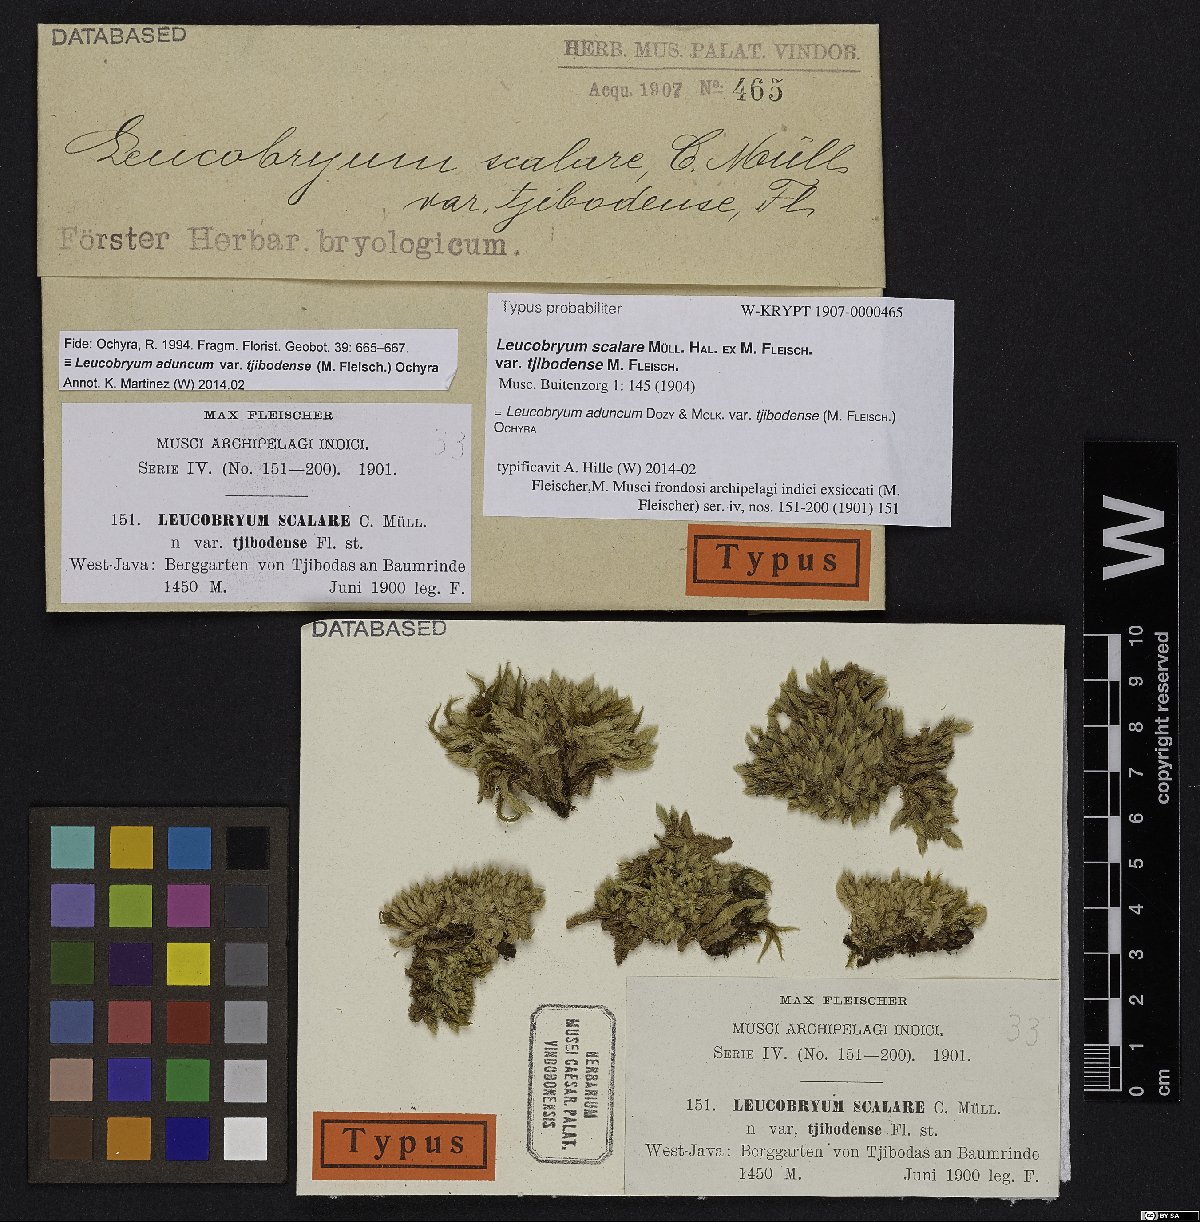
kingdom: Plantae
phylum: Bryophyta
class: Bryopsida
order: Dicranales
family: Leucobryaceae
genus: Leucobryum
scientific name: Leucobryum aduncum
